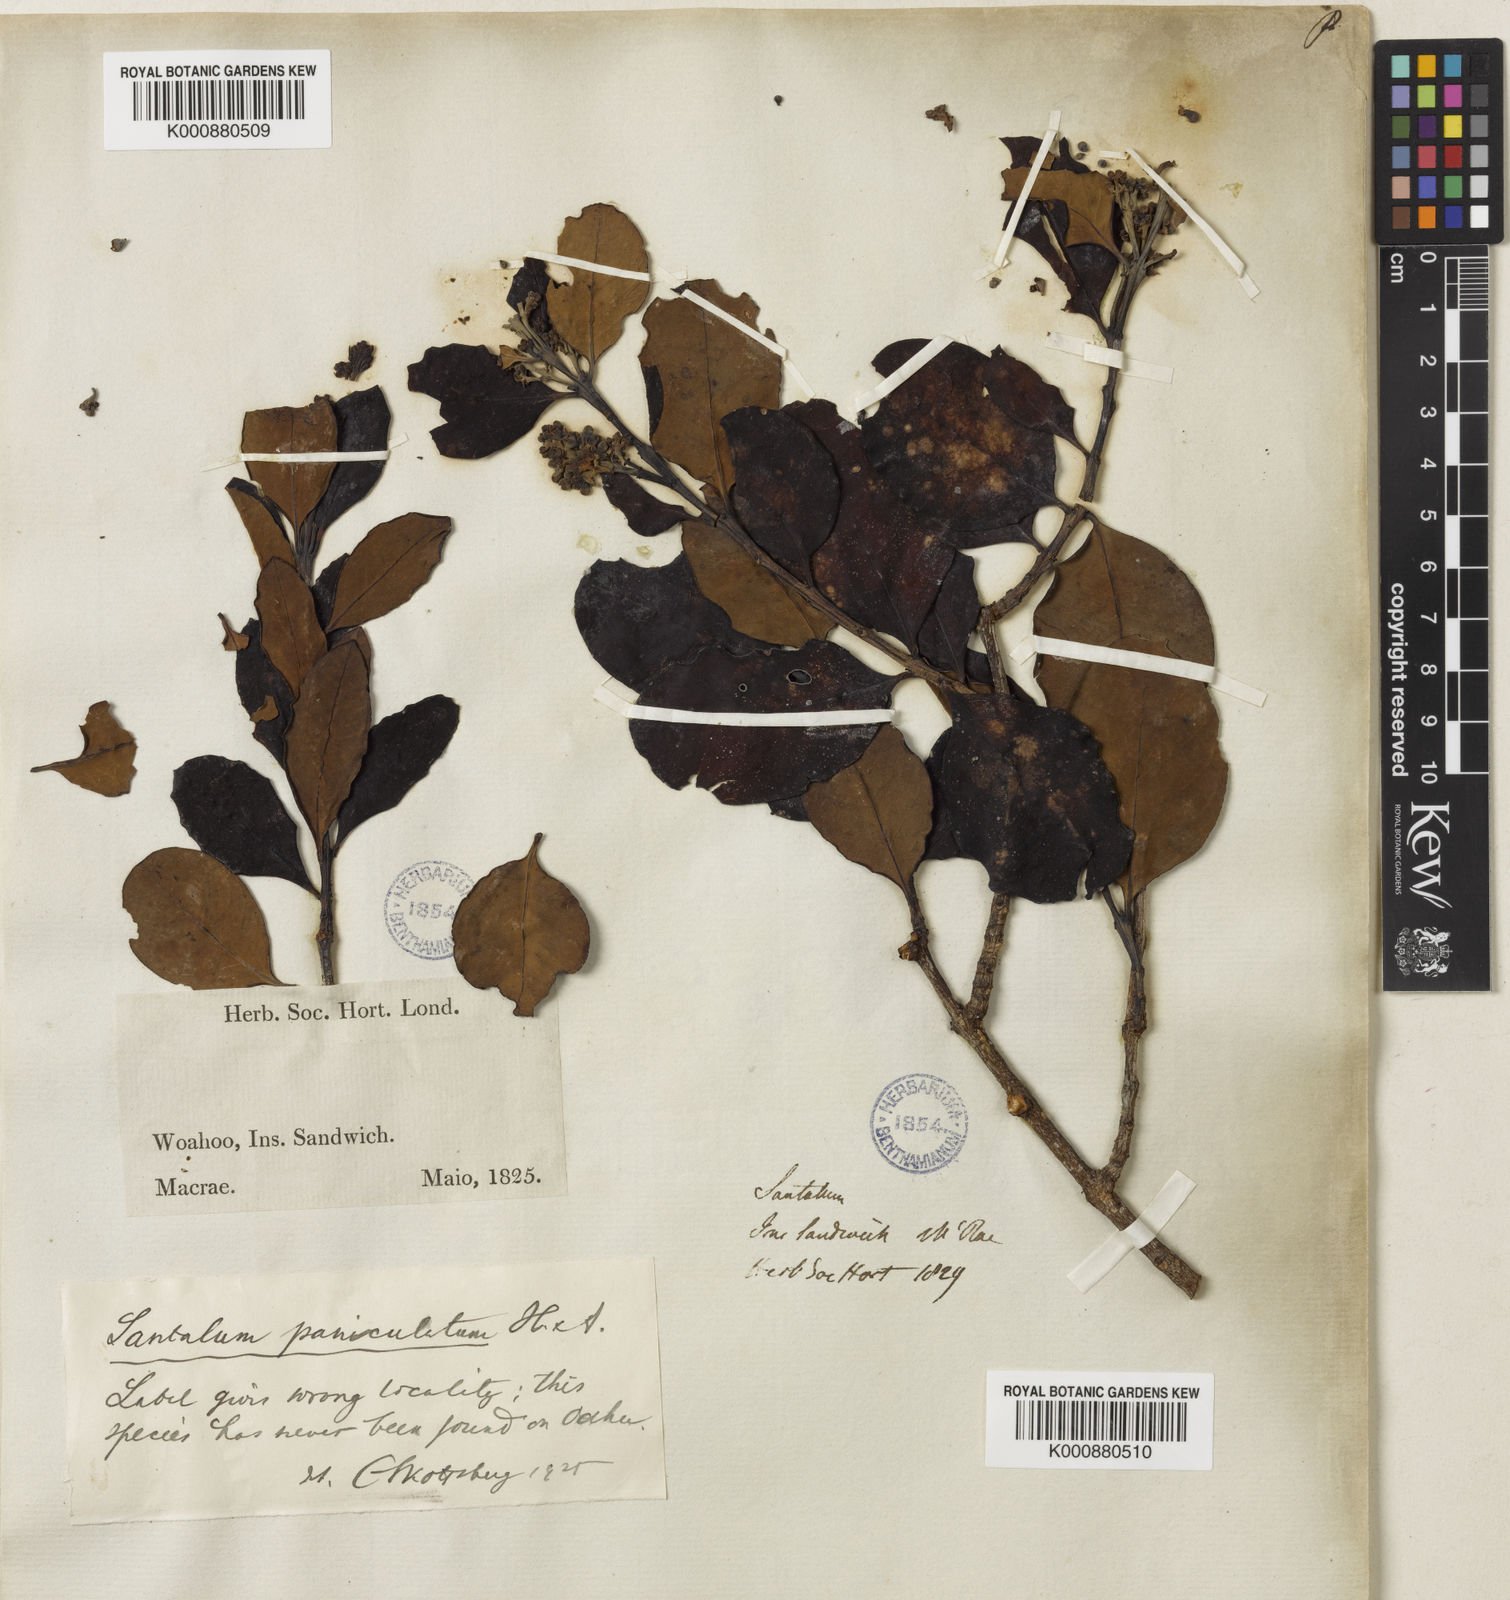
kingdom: Plantae
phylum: Tracheophyta
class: Magnoliopsida
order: Santalales
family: Santalaceae
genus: Santalum
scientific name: Santalum paniculatum
